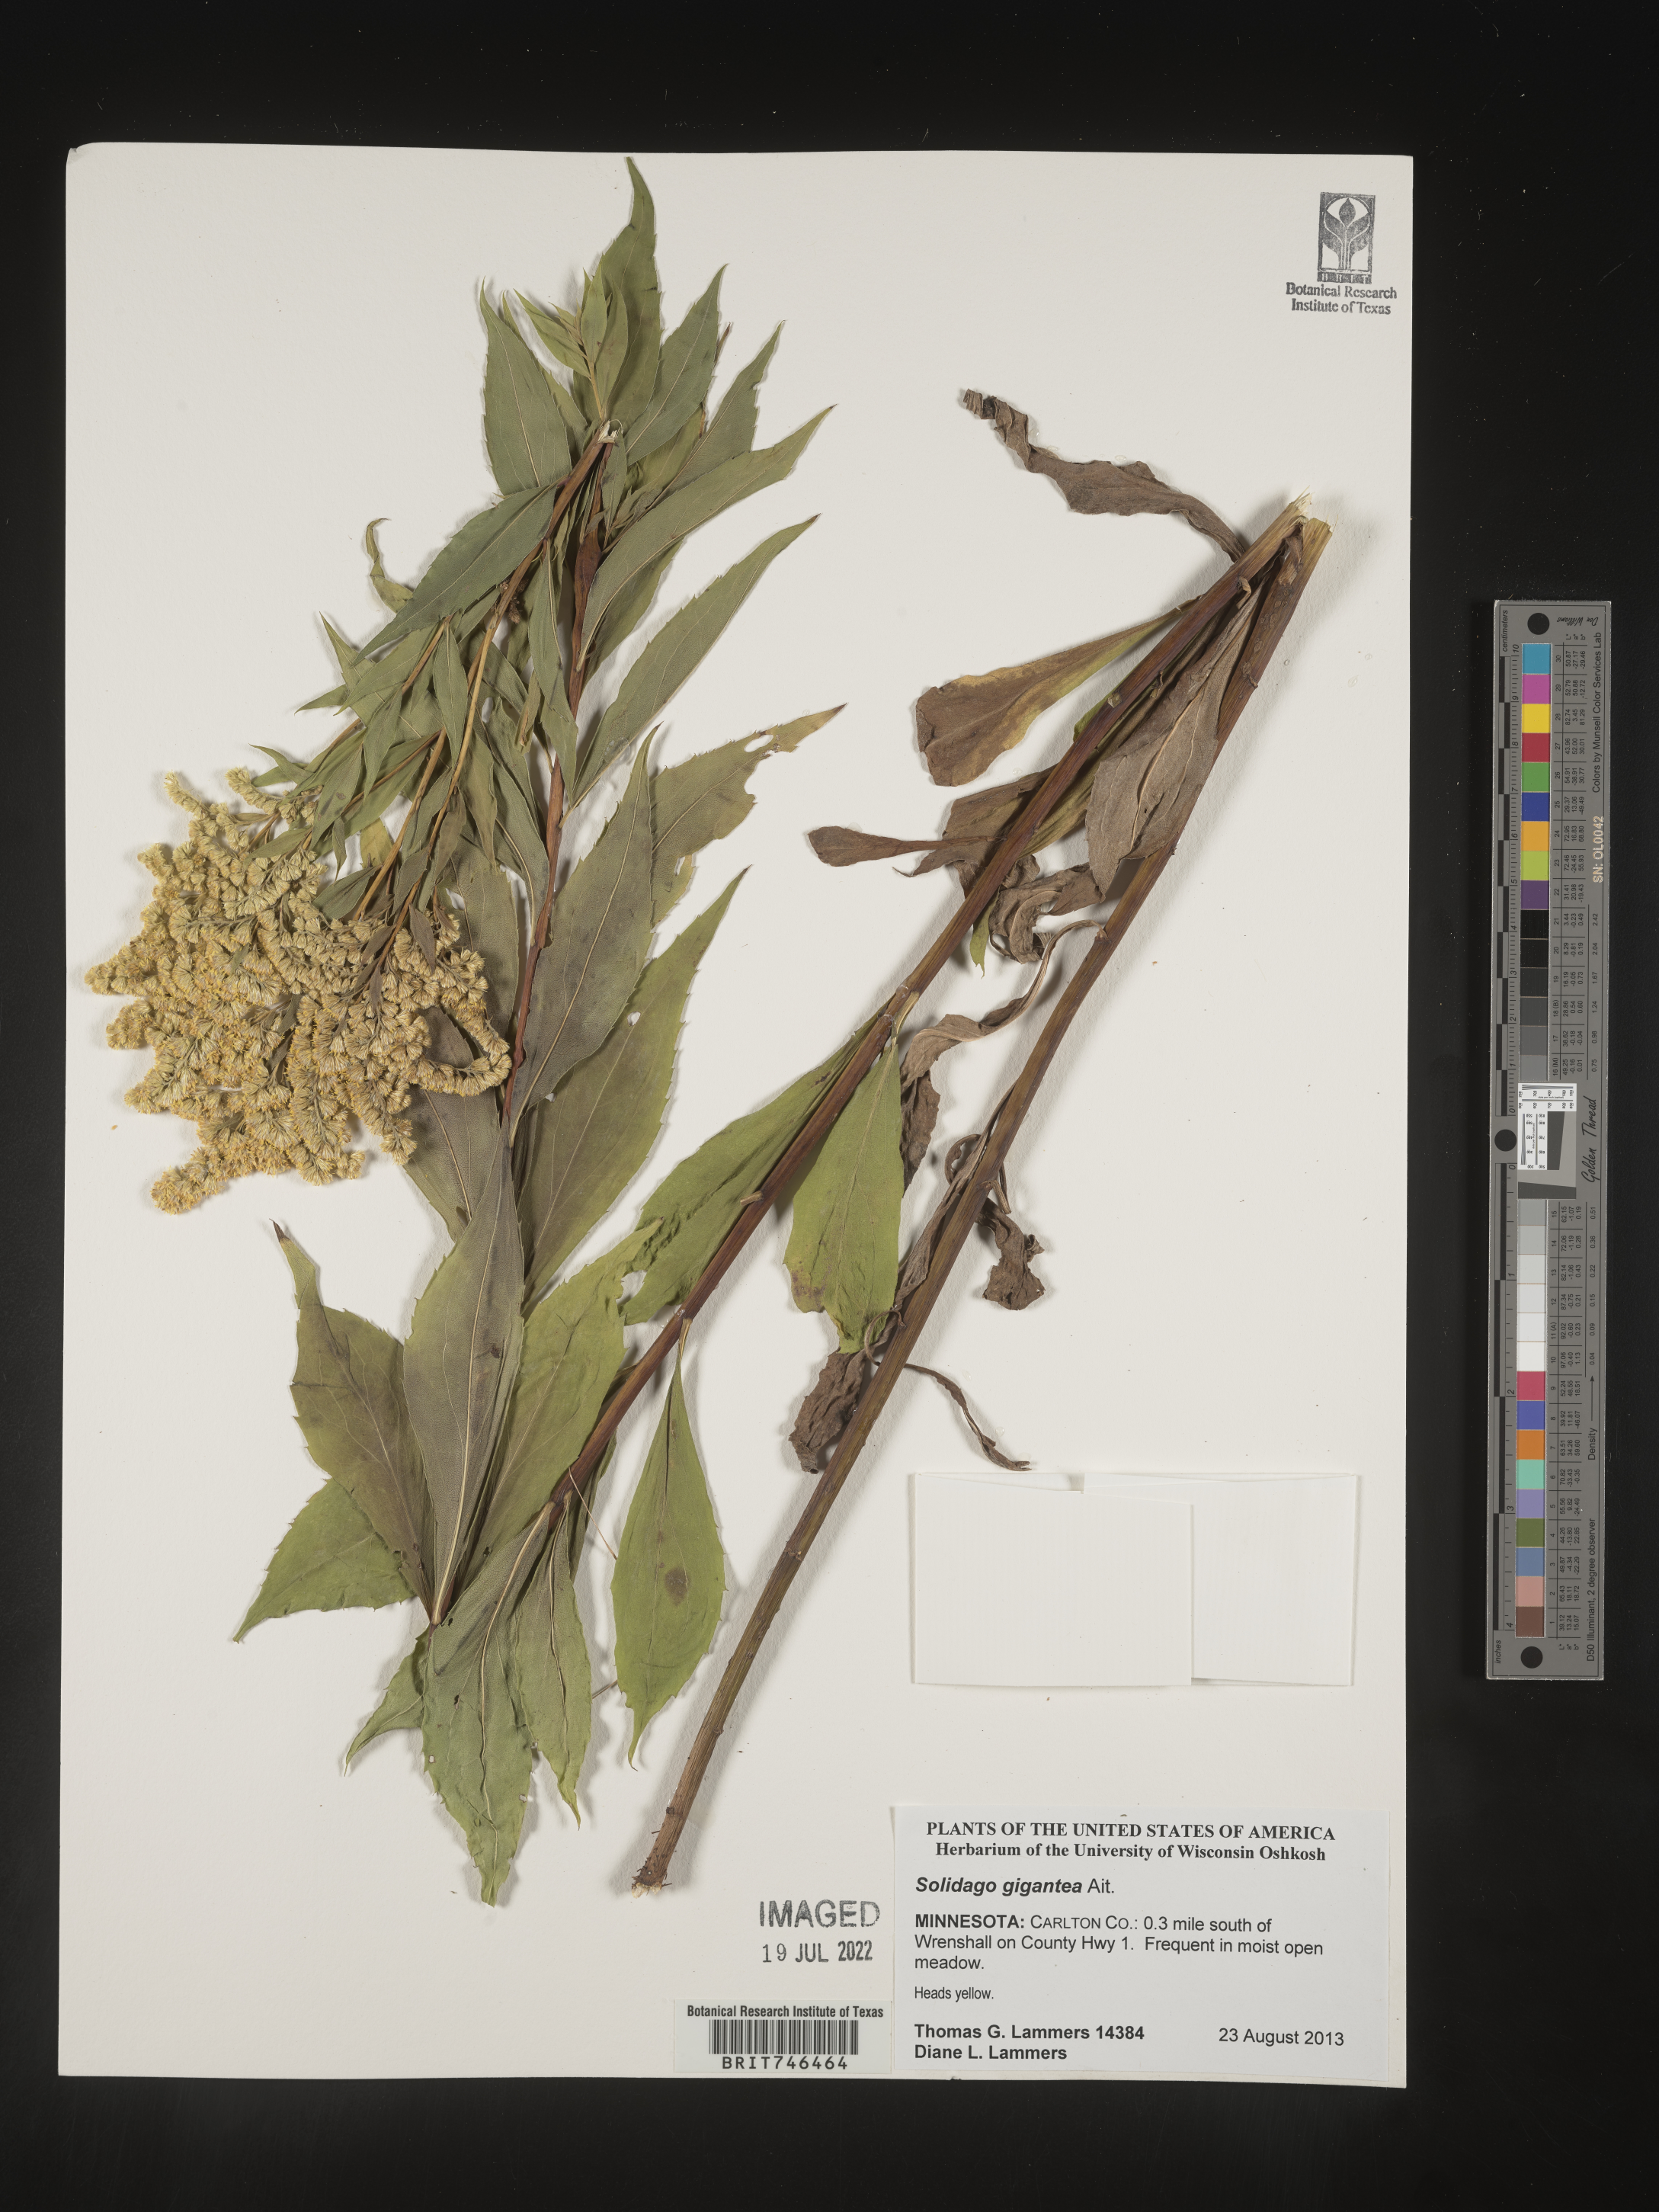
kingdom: Plantae
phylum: Tracheophyta
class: Magnoliopsida
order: Asterales
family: Asteraceae
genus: Solidago
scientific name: Solidago gigantea
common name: Giant goldenrod
